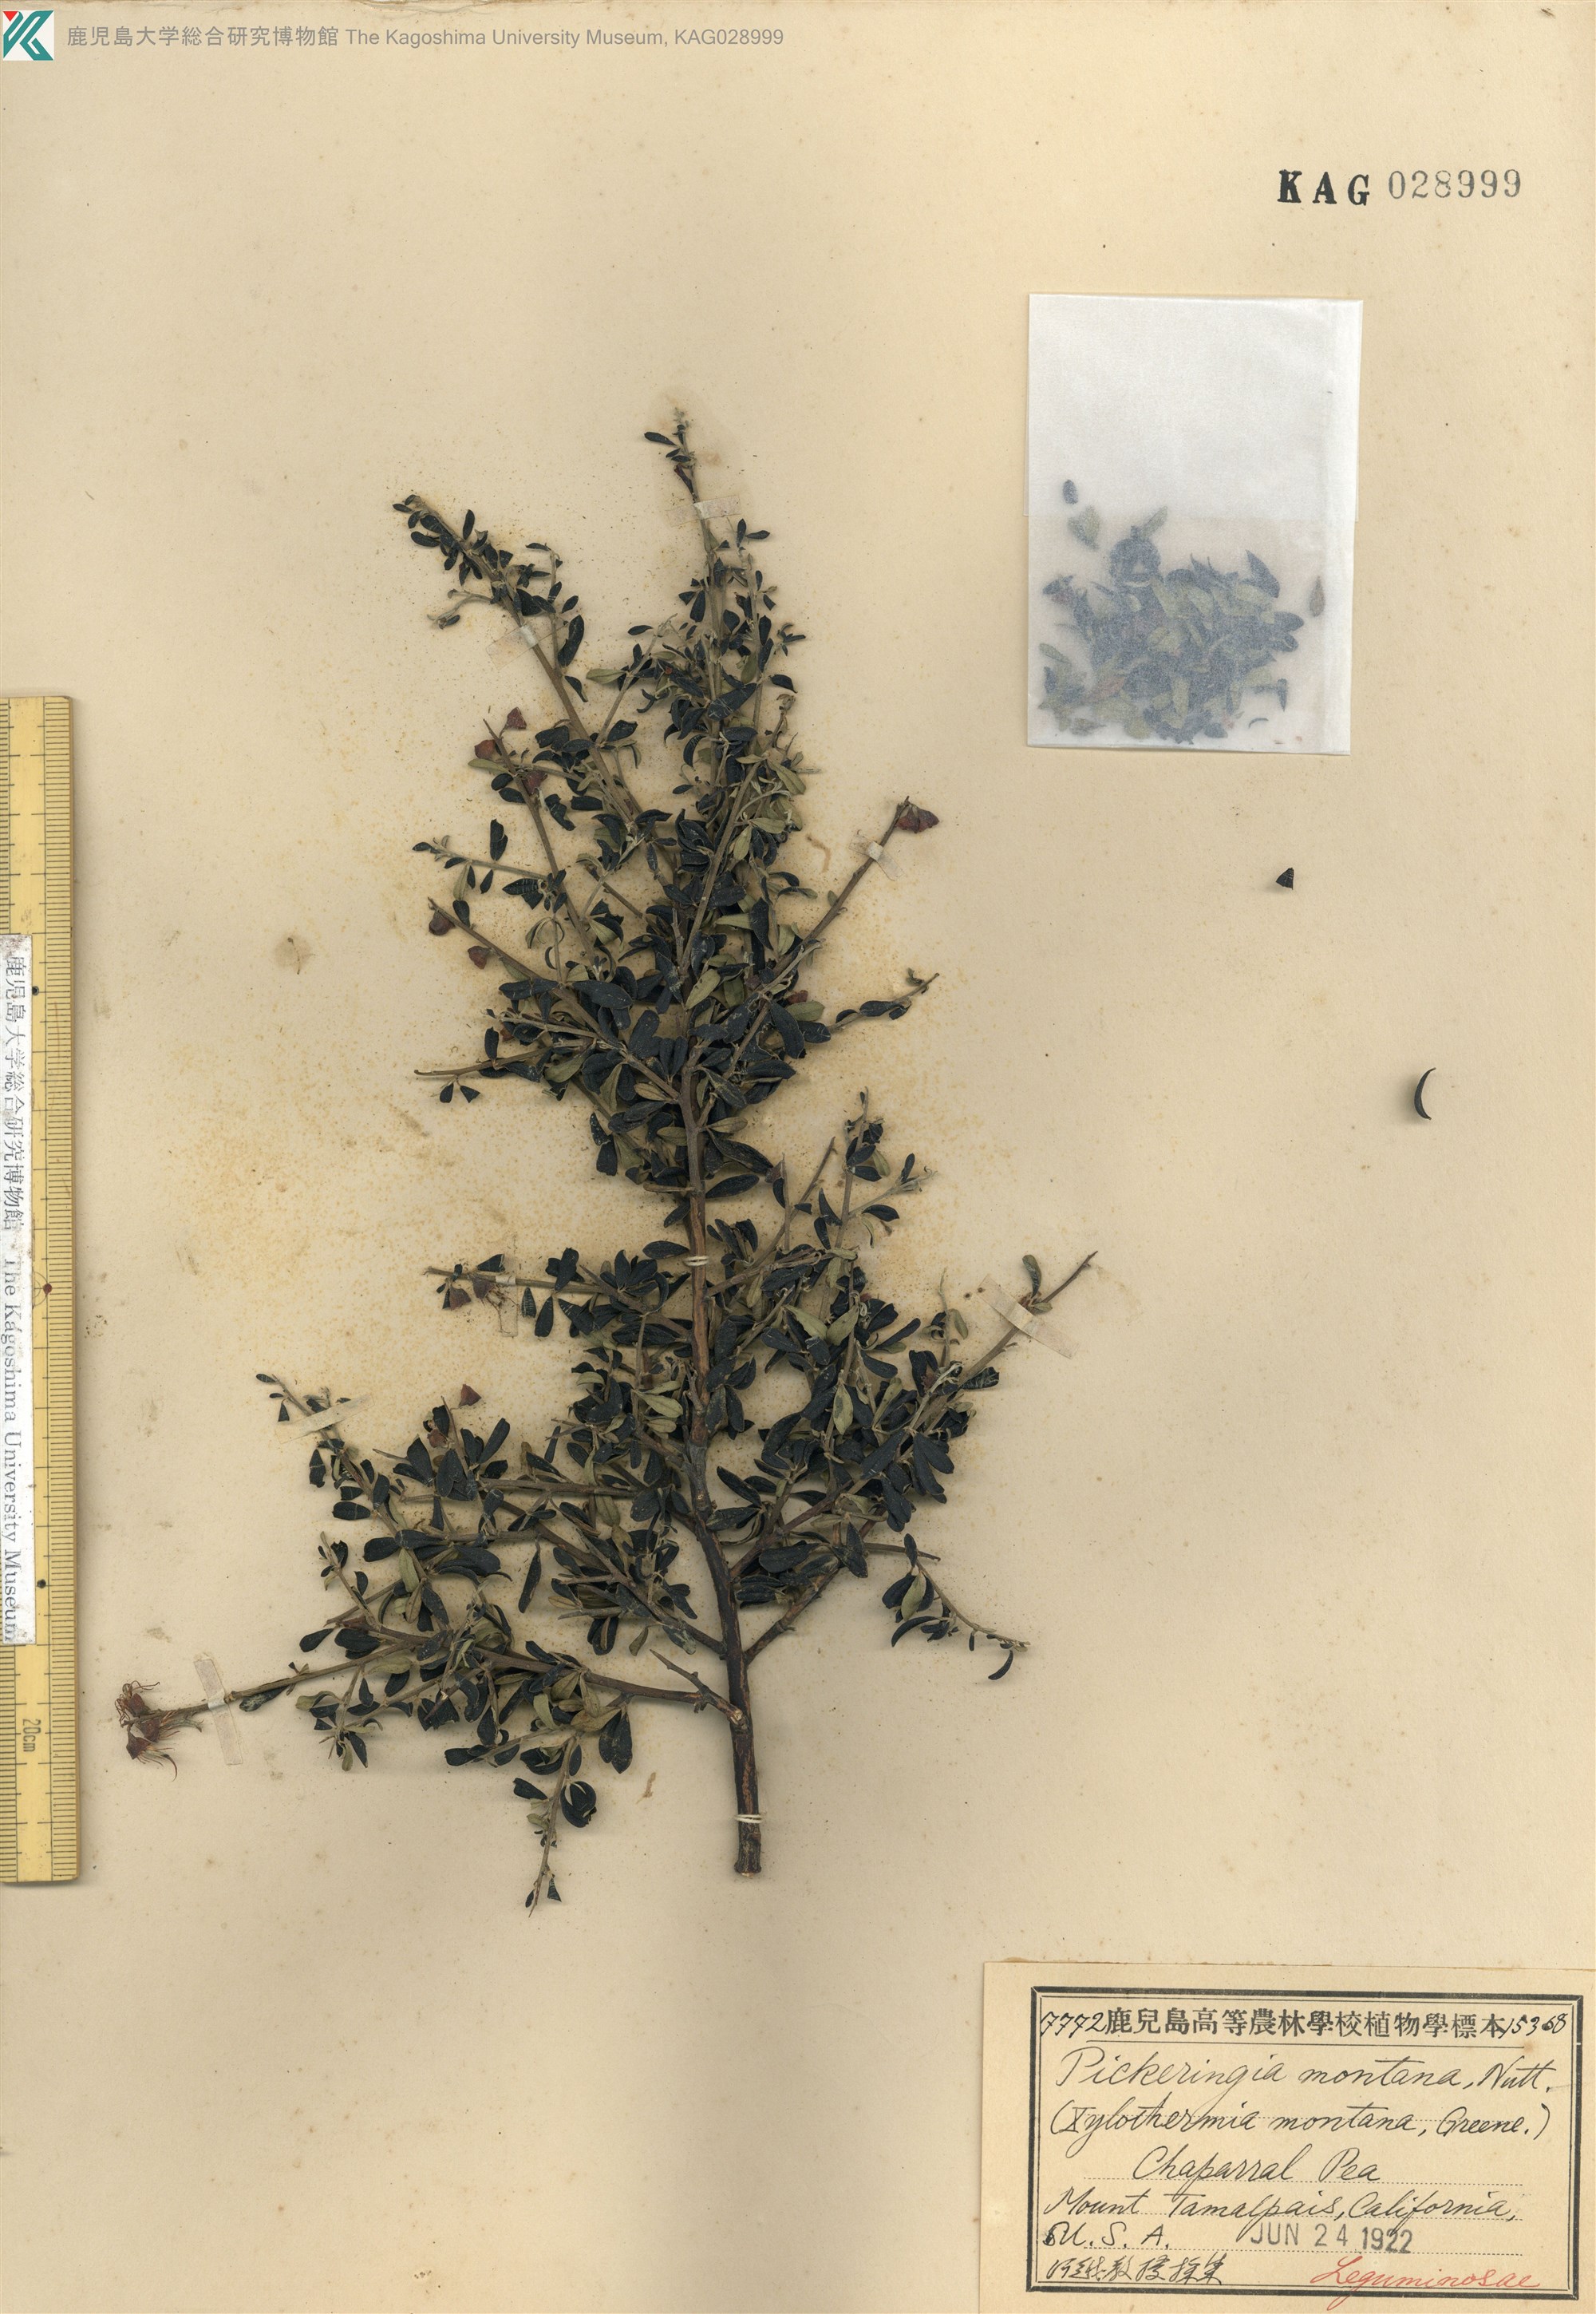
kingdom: Plantae
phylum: Tracheophyta
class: Magnoliopsida
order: Fabales
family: Fabaceae
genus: Pickeringia
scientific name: Pickeringia montana
